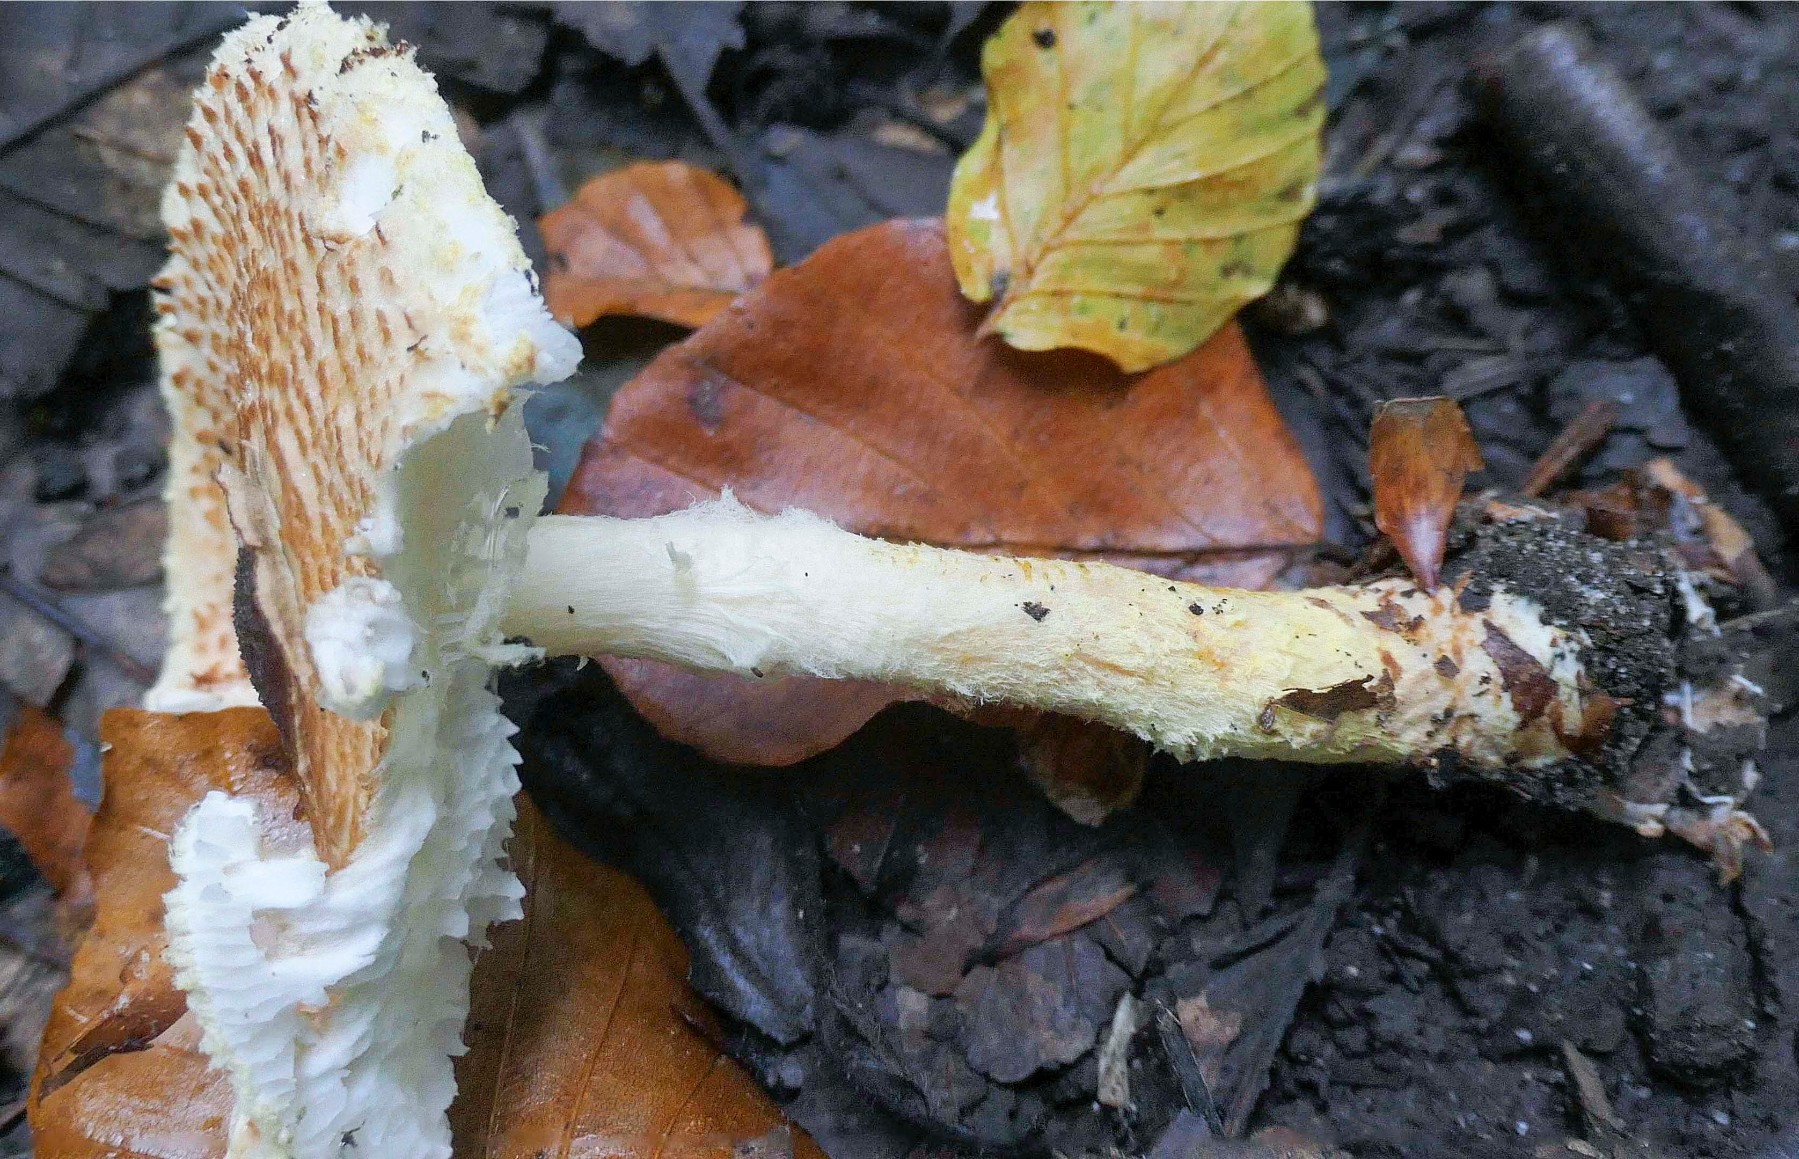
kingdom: Fungi
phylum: Basidiomycota
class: Agaricomycetes
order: Agaricales
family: Agaricaceae
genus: Lepiota
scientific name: Lepiota magnispora
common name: gulfnugget parasolhat
